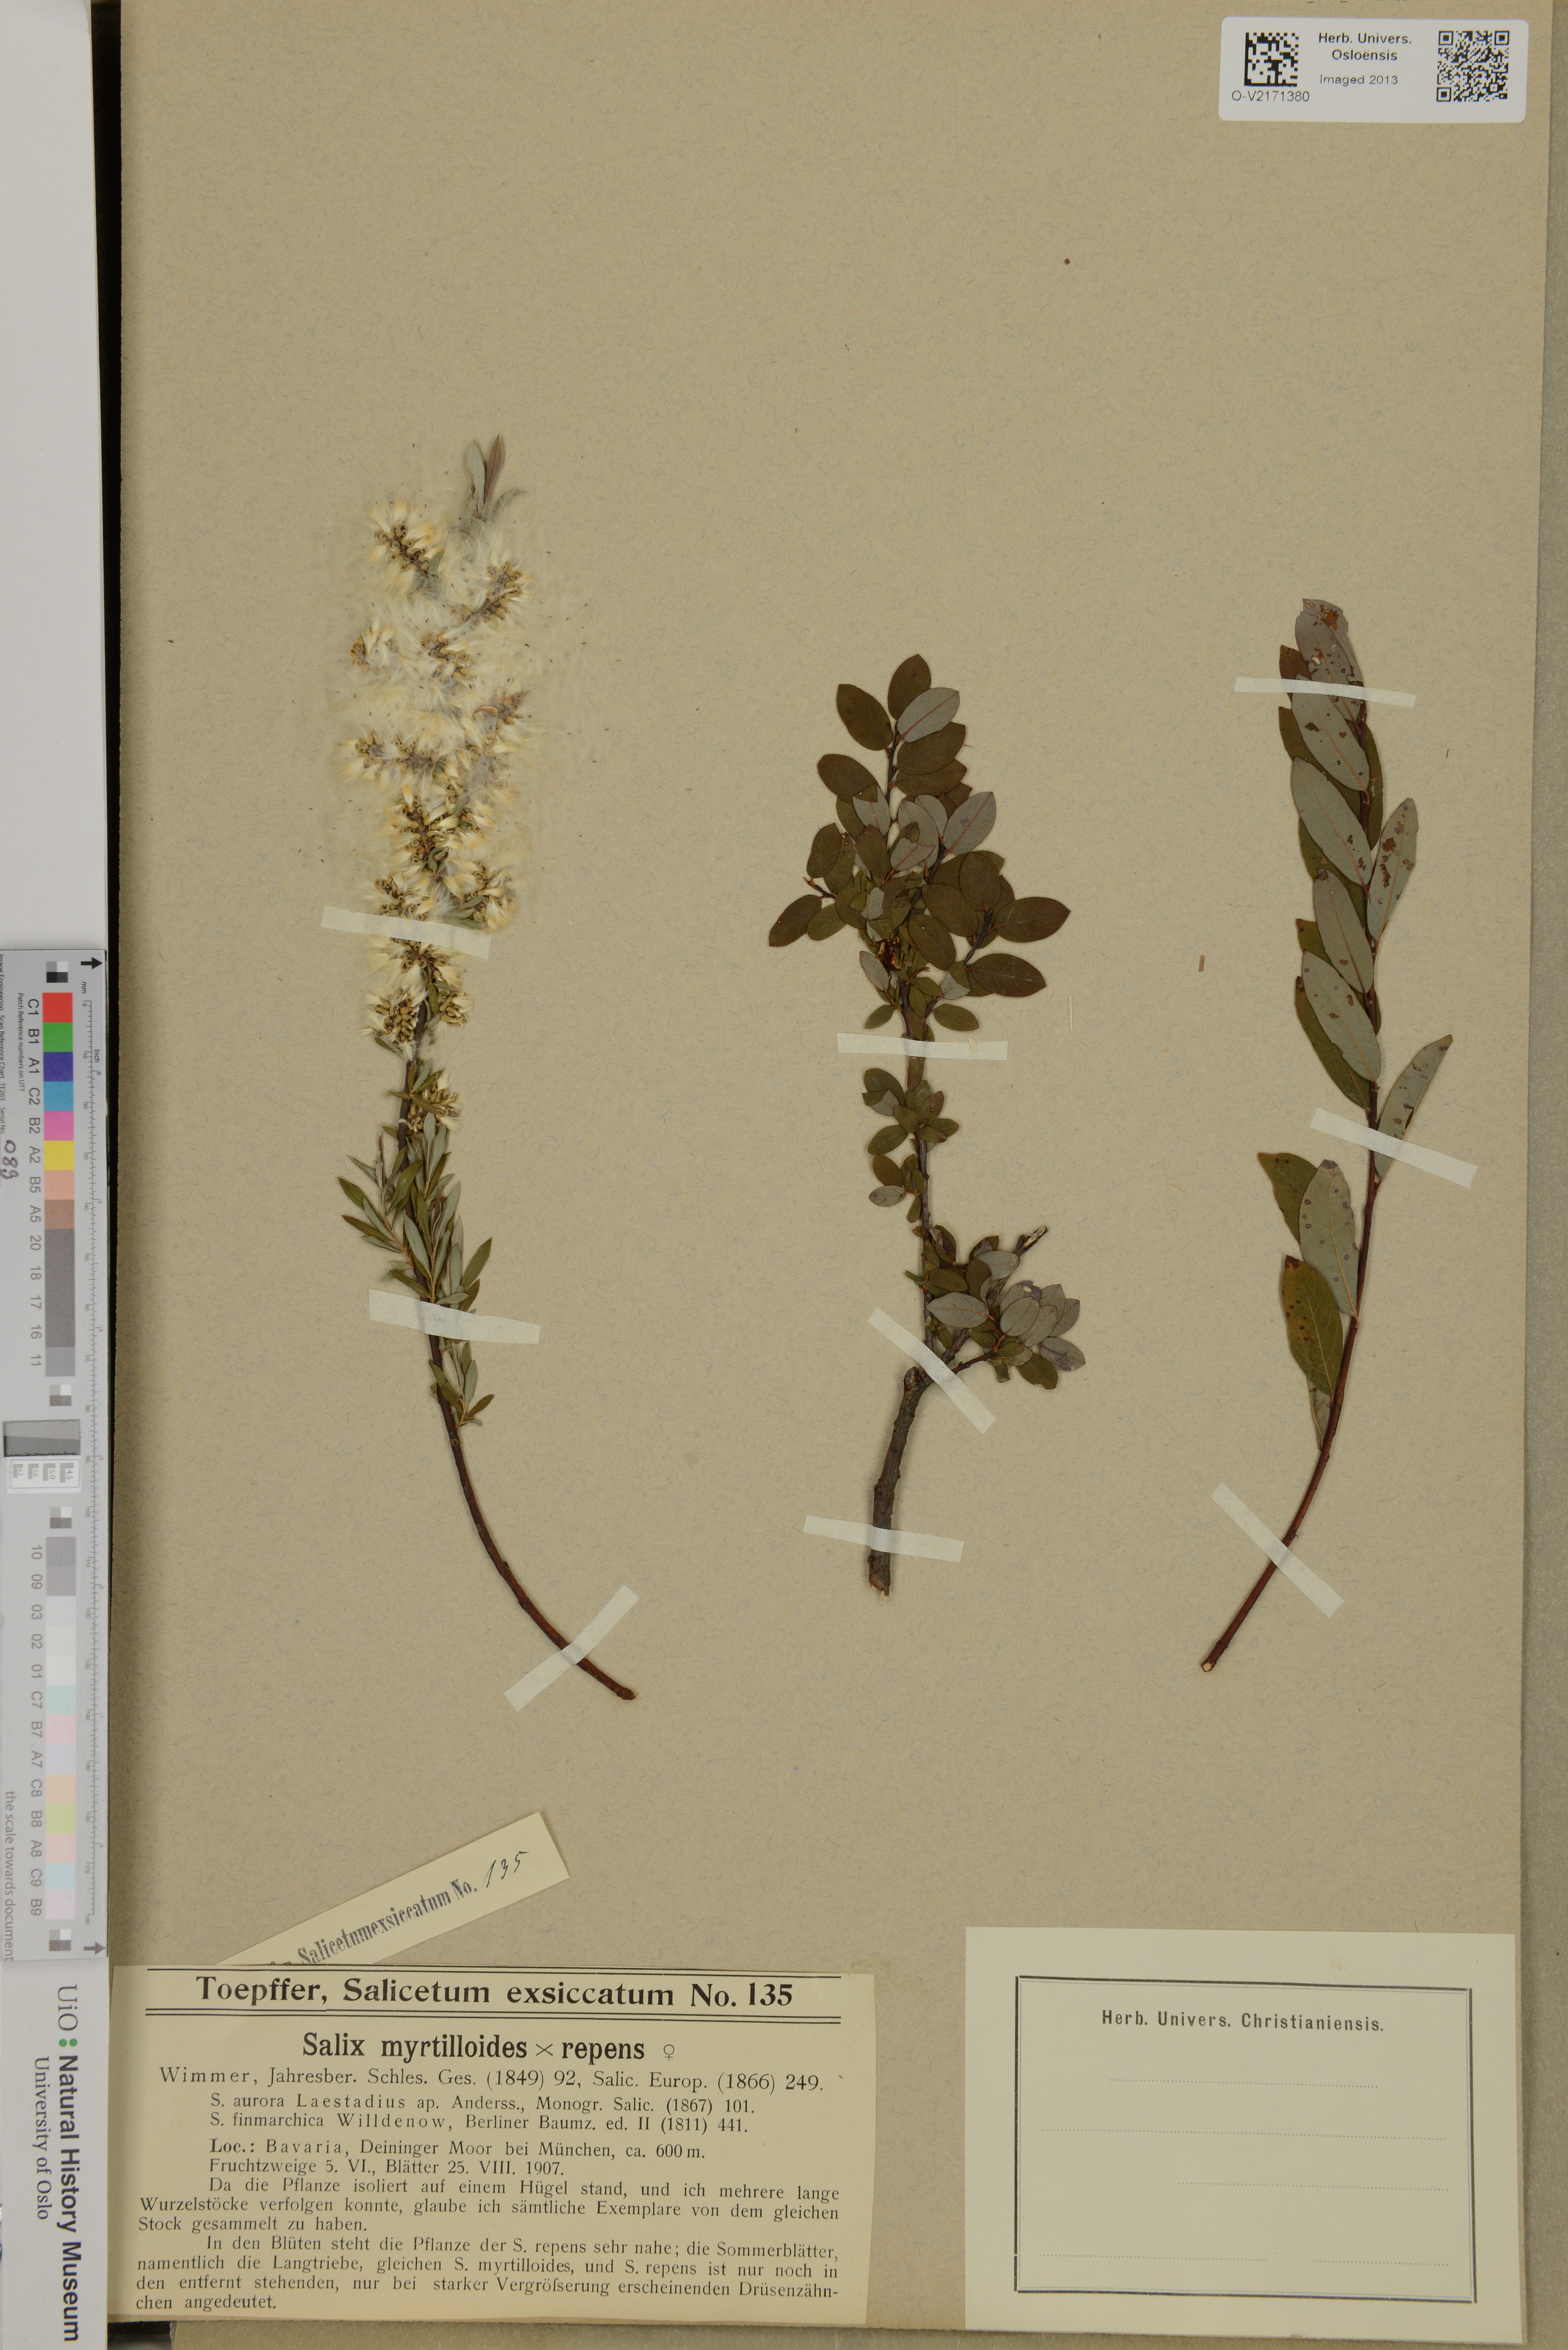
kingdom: Plantae
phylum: Tracheophyta
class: Magnoliopsida
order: Malpighiales
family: Salicaceae
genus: Salix
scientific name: Salix
